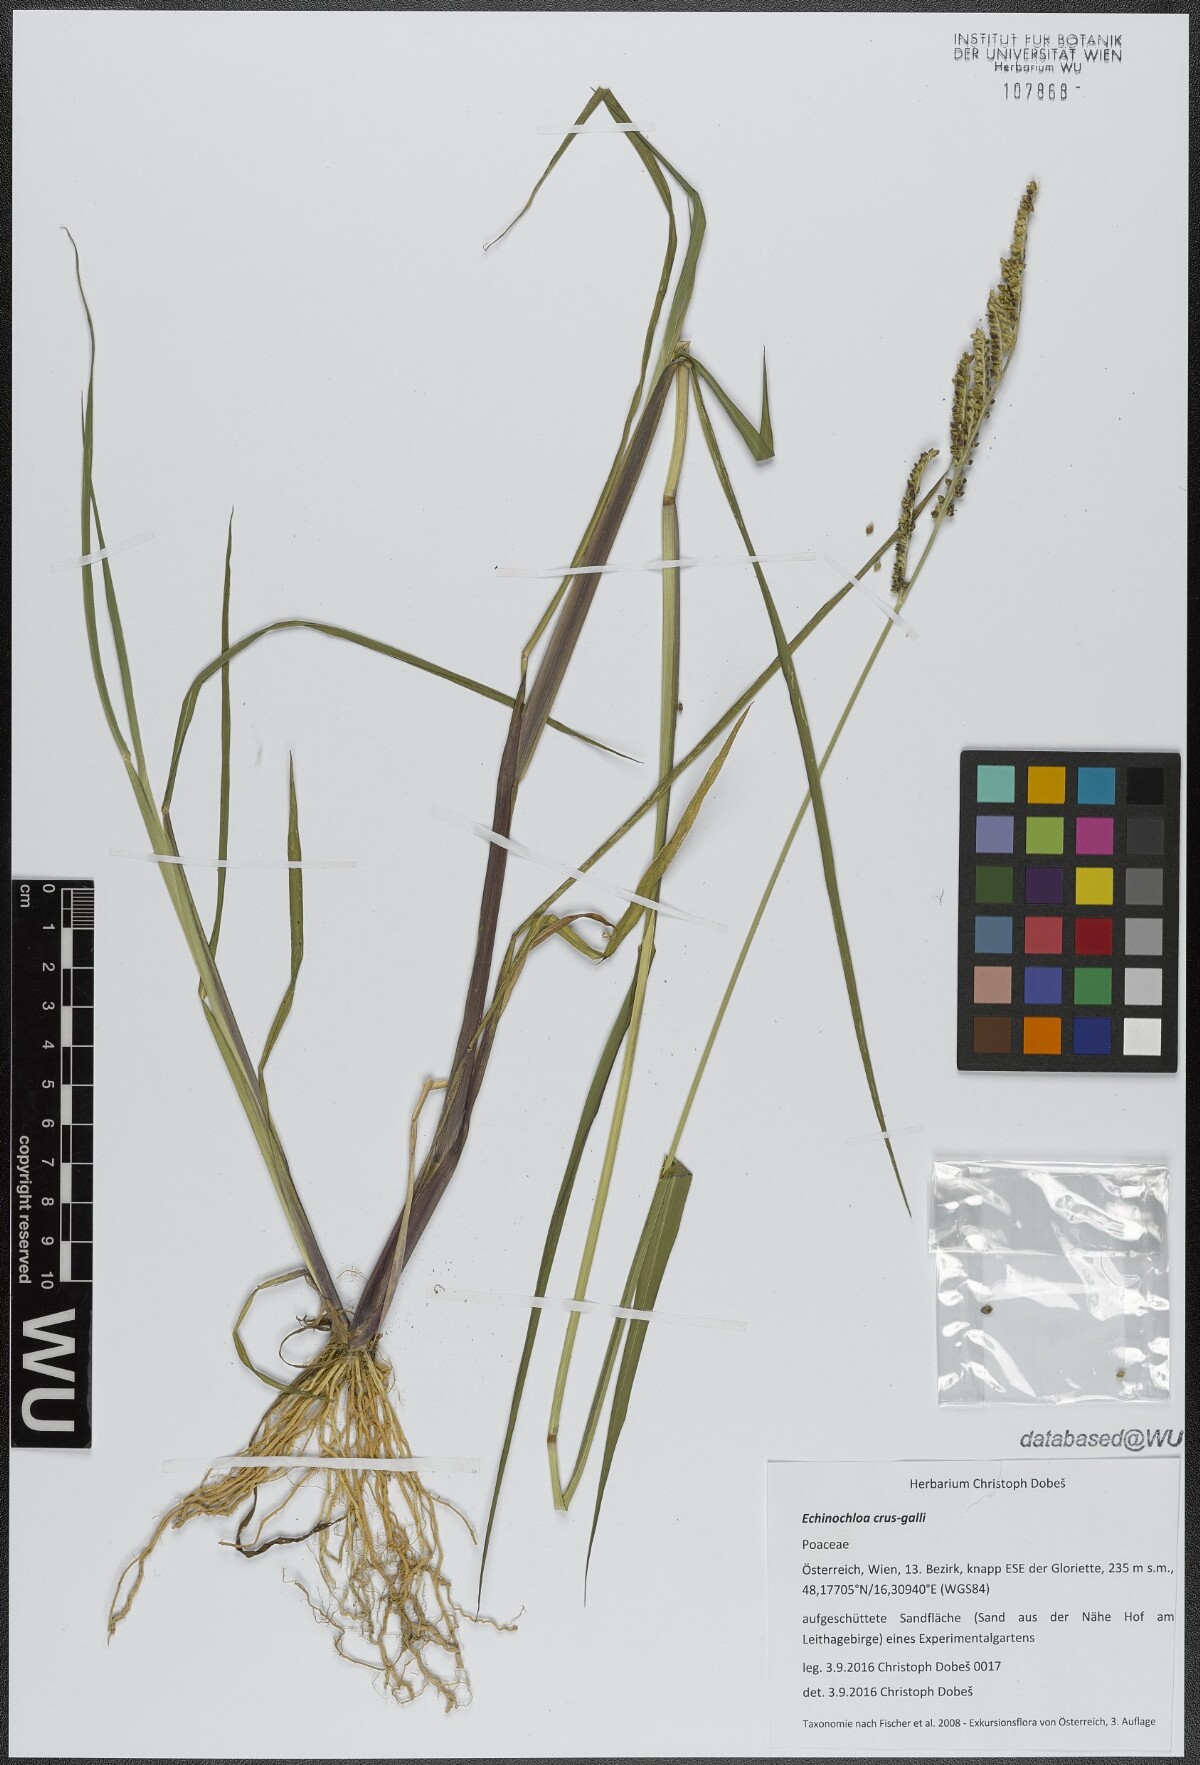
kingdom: Plantae
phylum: Tracheophyta
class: Liliopsida
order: Poales
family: Poaceae
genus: Echinochloa
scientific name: Echinochloa crus-galli
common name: Cockspur
